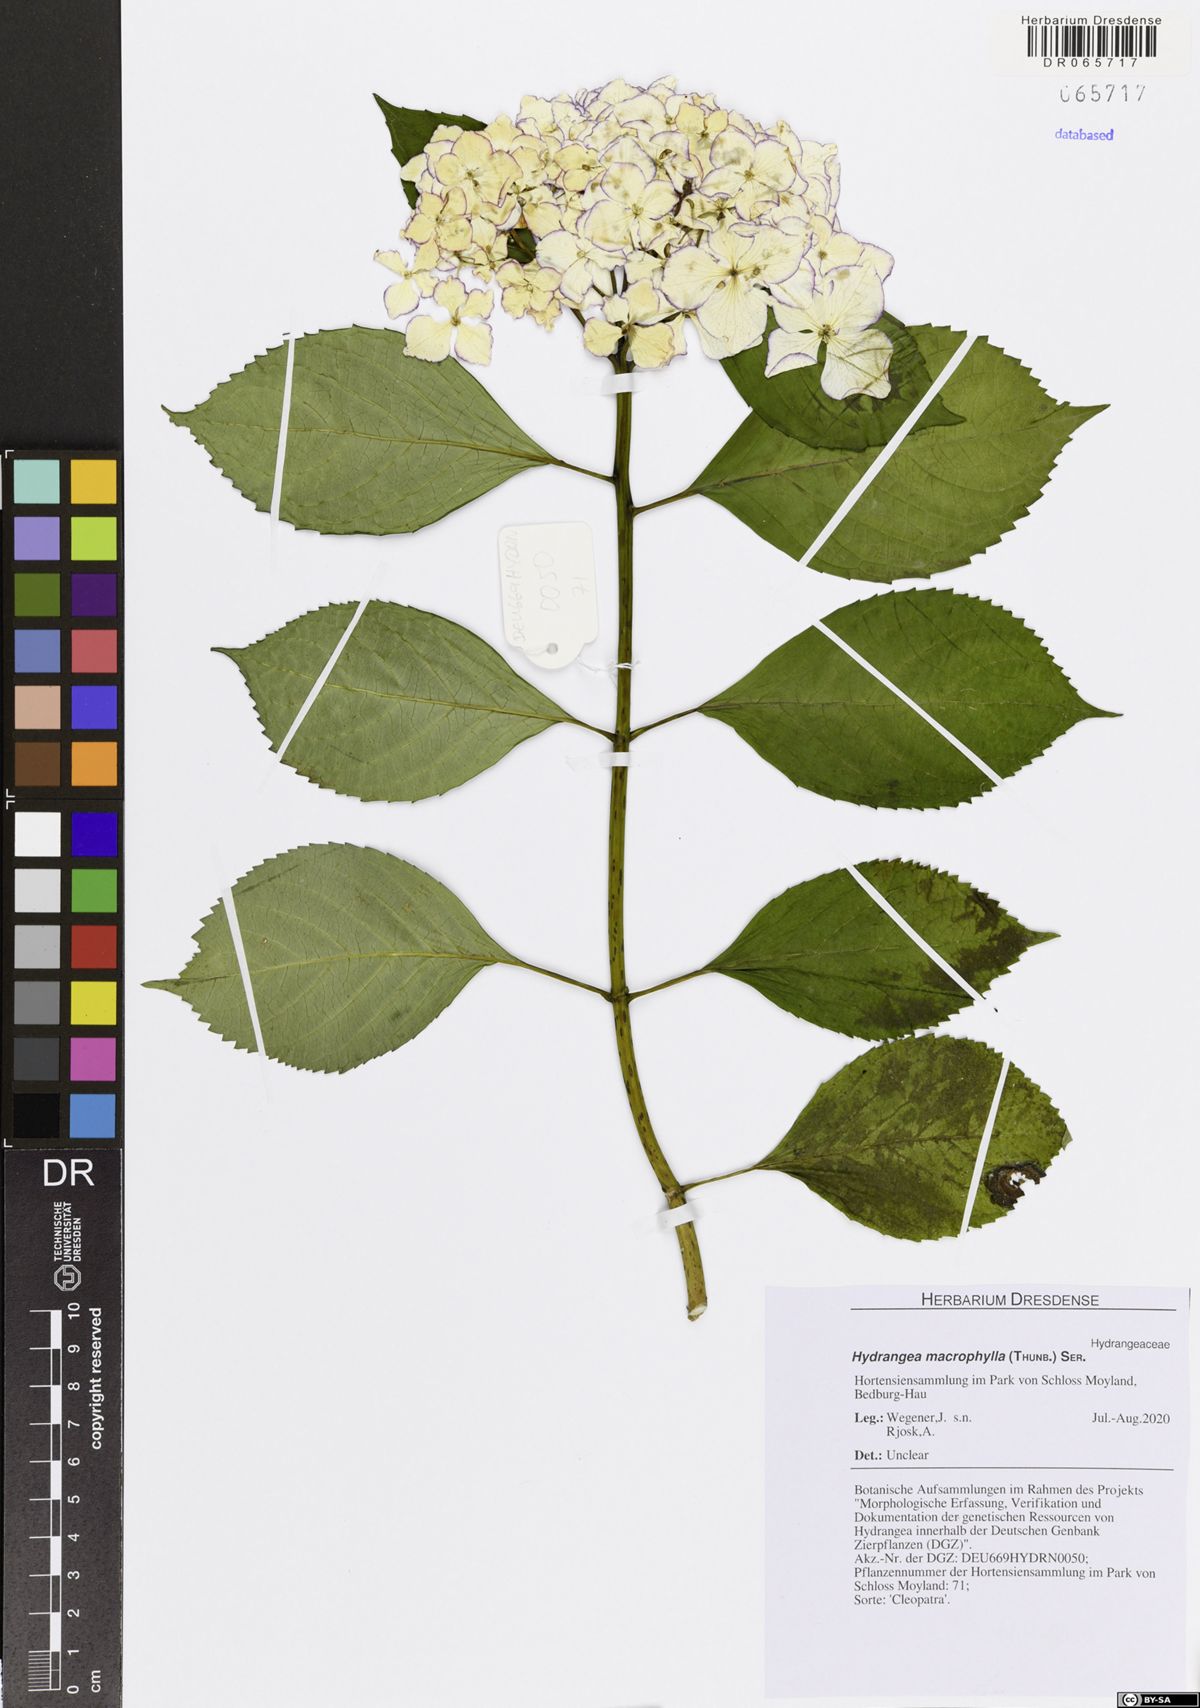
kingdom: Plantae
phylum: Tracheophyta
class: Magnoliopsida
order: Cornales
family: Hydrangeaceae
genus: Hydrangea
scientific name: Hydrangea macrophylla
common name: Hydrangea
